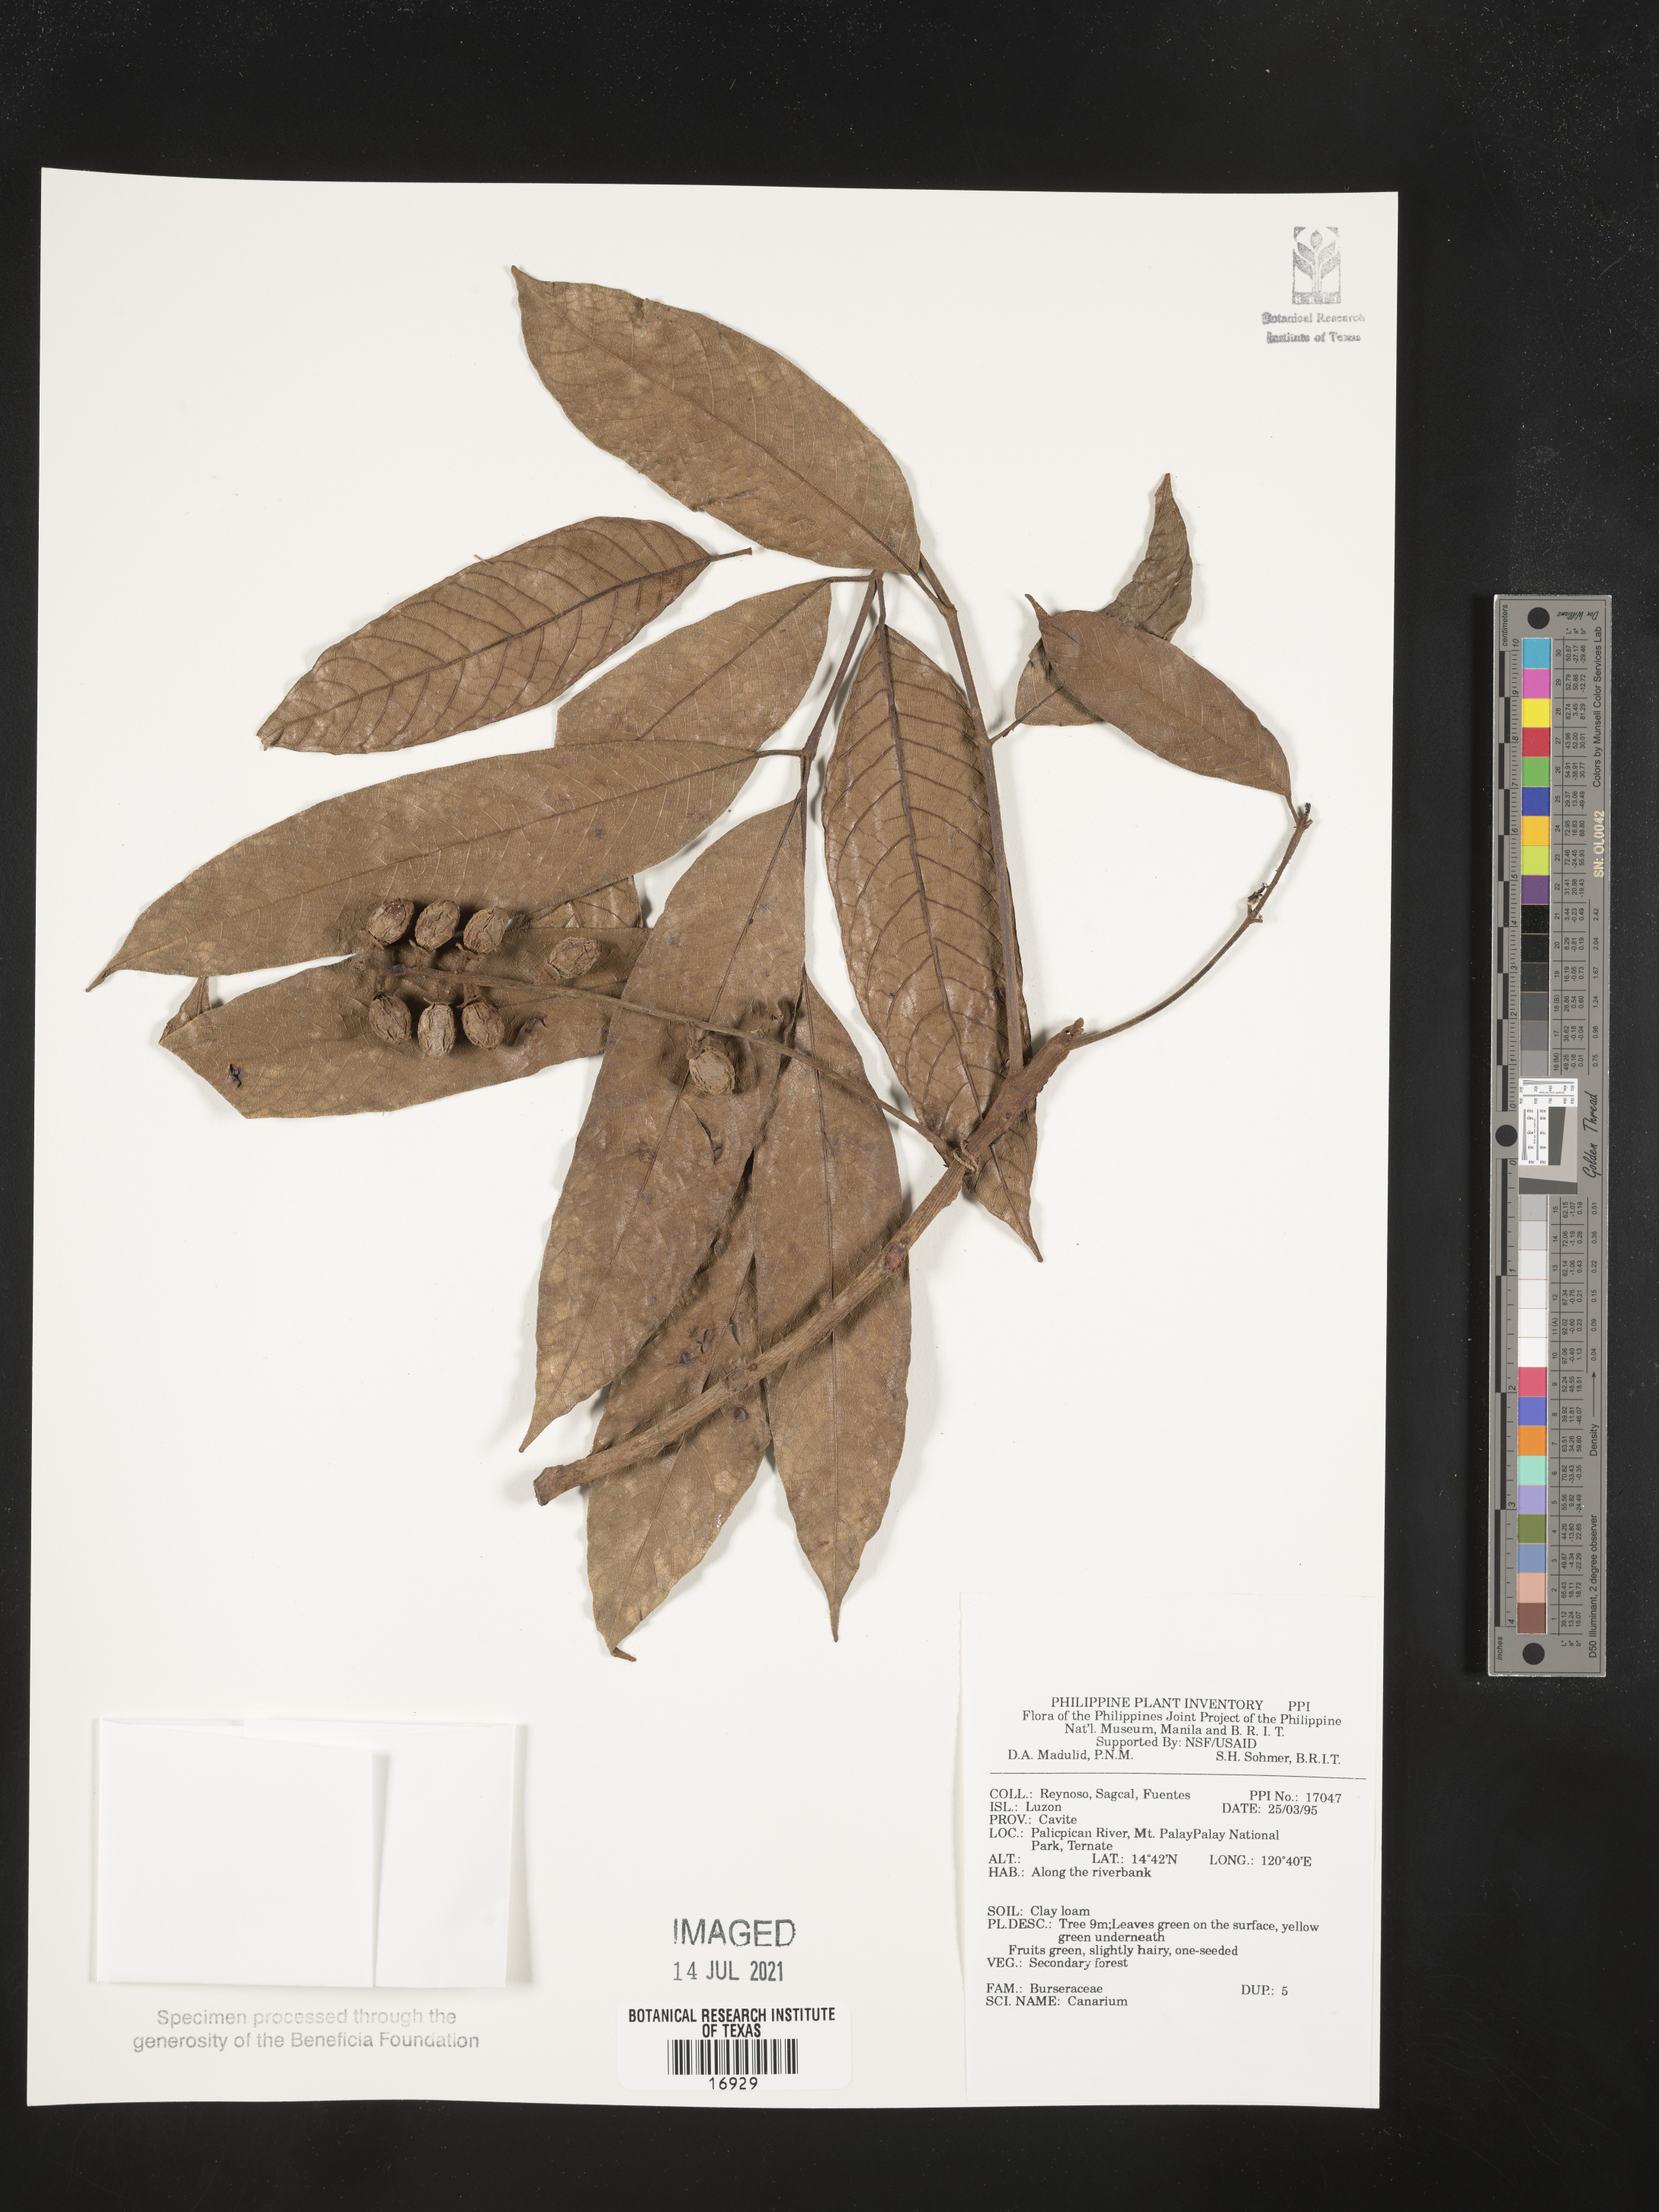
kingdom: Plantae
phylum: Tracheophyta
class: Magnoliopsida
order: Sapindales
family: Burseraceae
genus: Canarium
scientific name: Canarium
